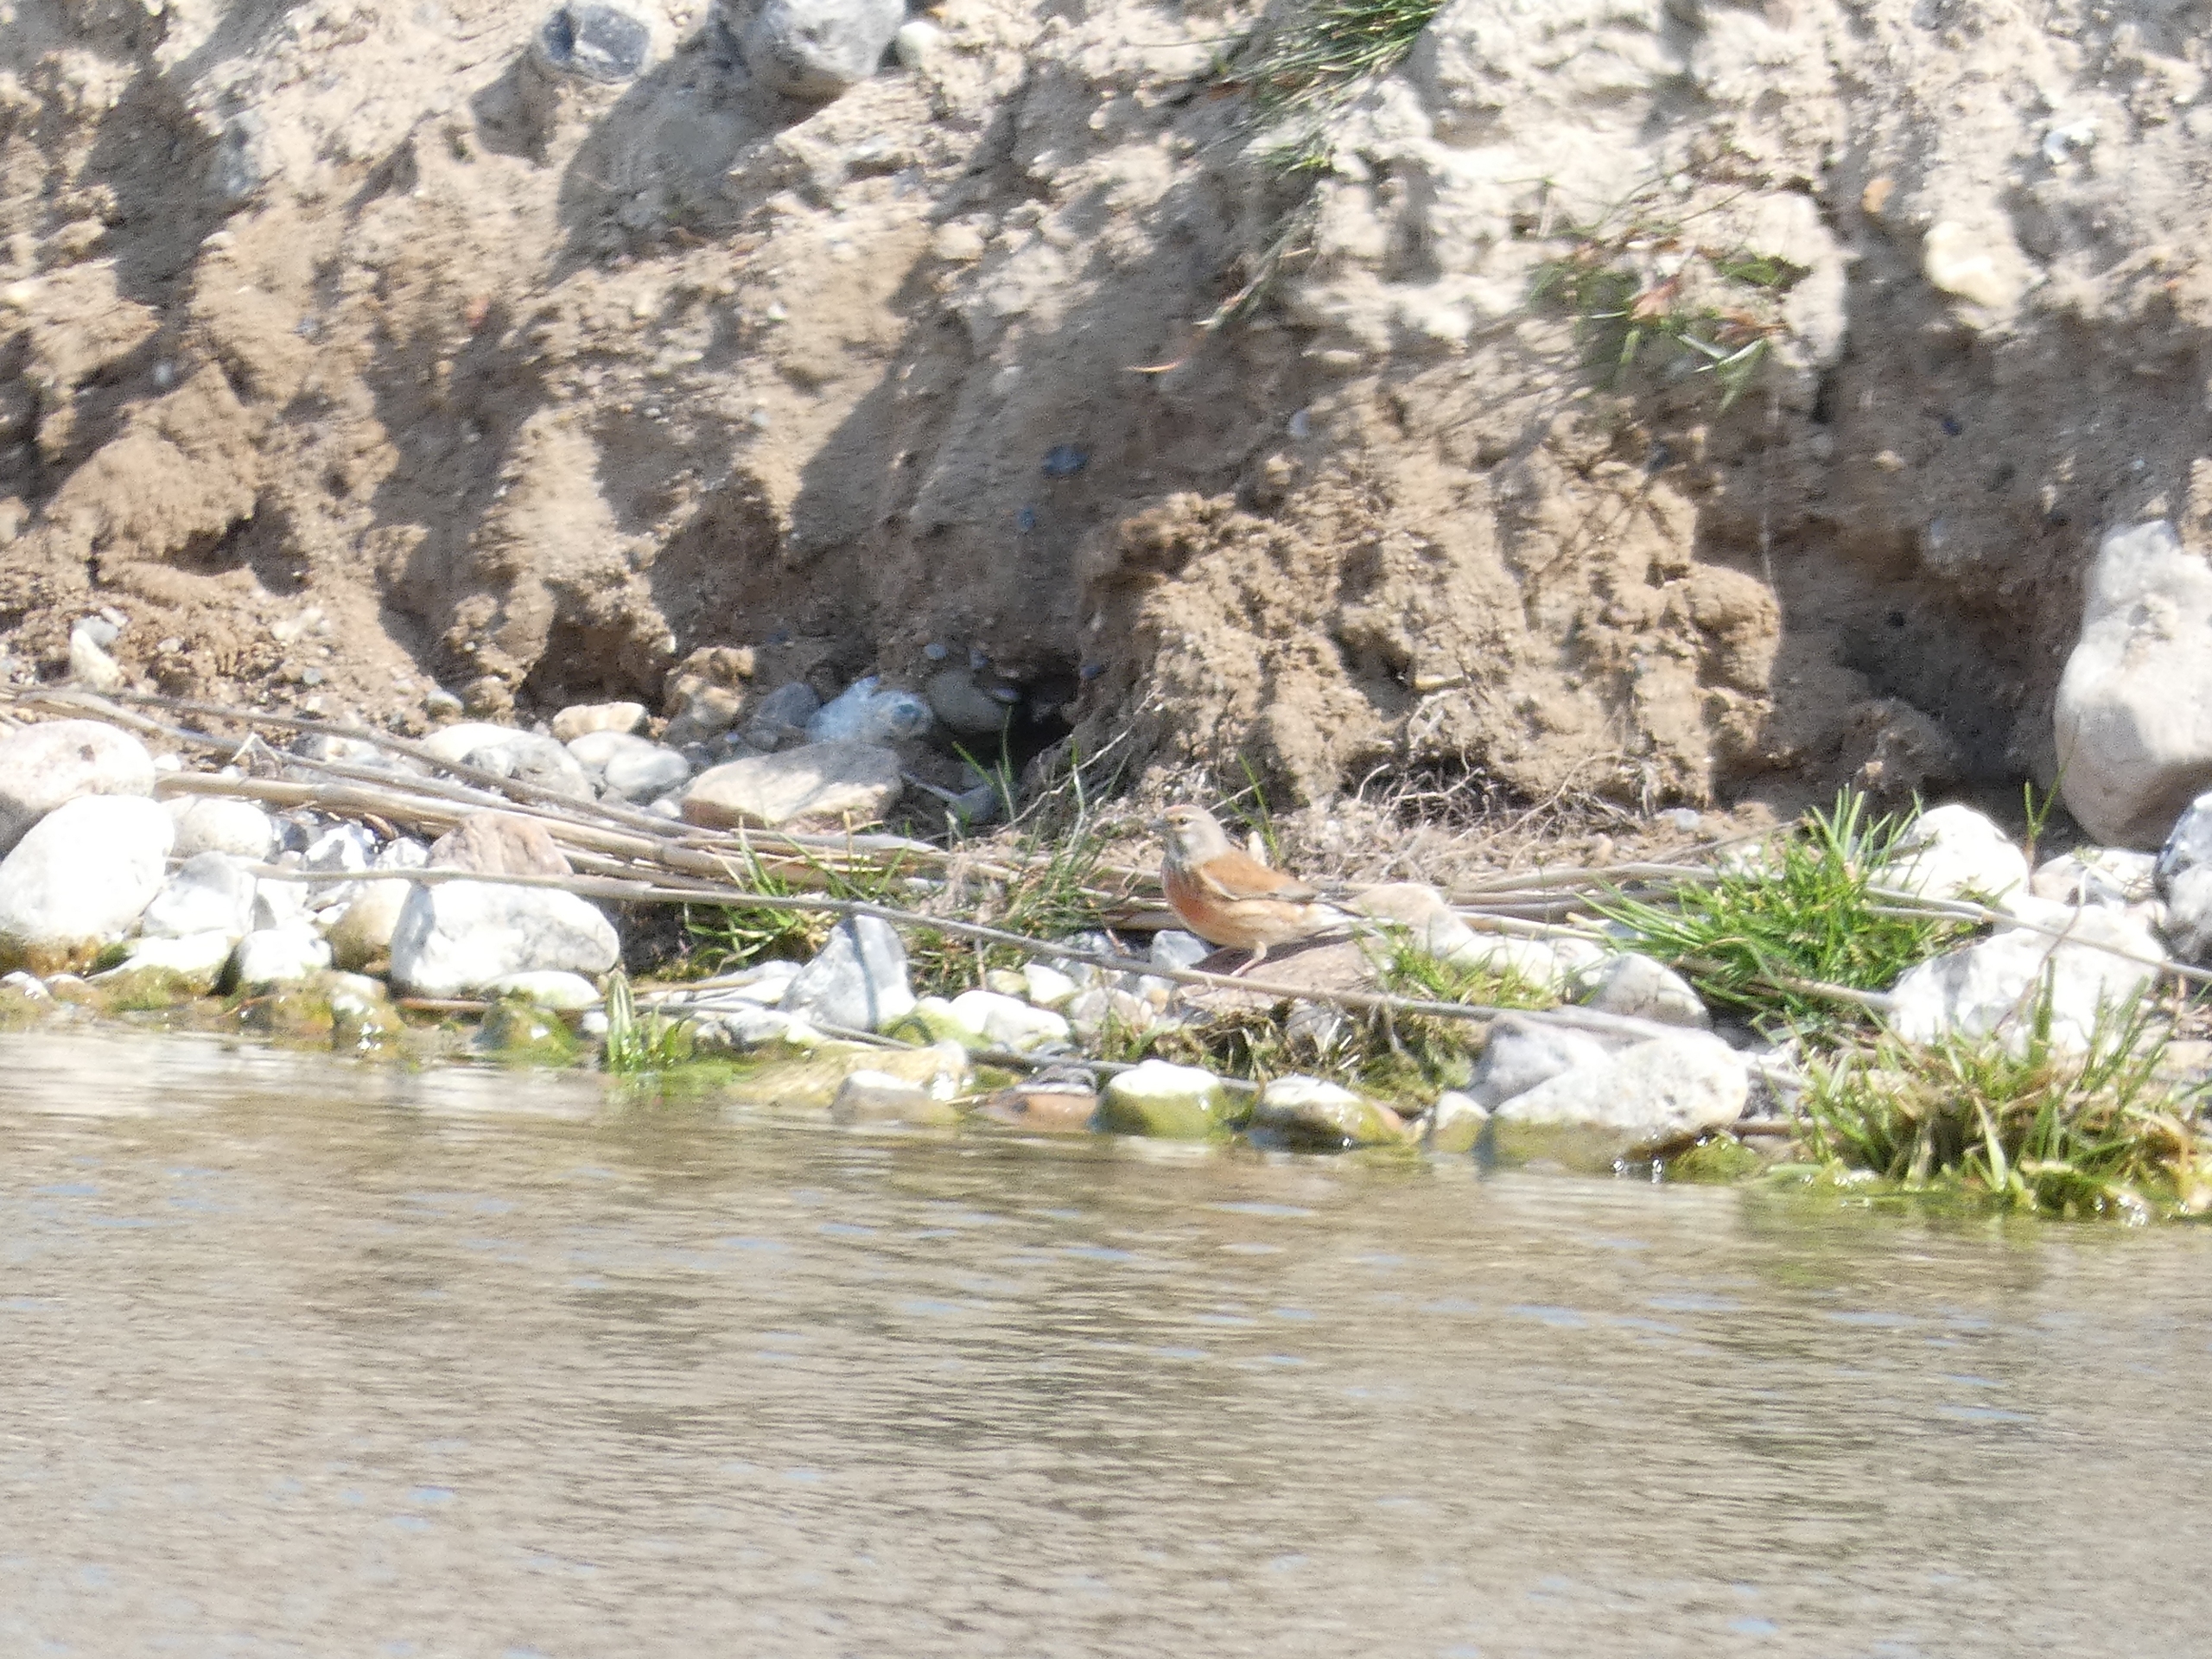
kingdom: Animalia
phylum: Chordata
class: Aves
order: Passeriformes
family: Fringillidae
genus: Linaria
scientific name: Linaria cannabina
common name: Tornirisk
